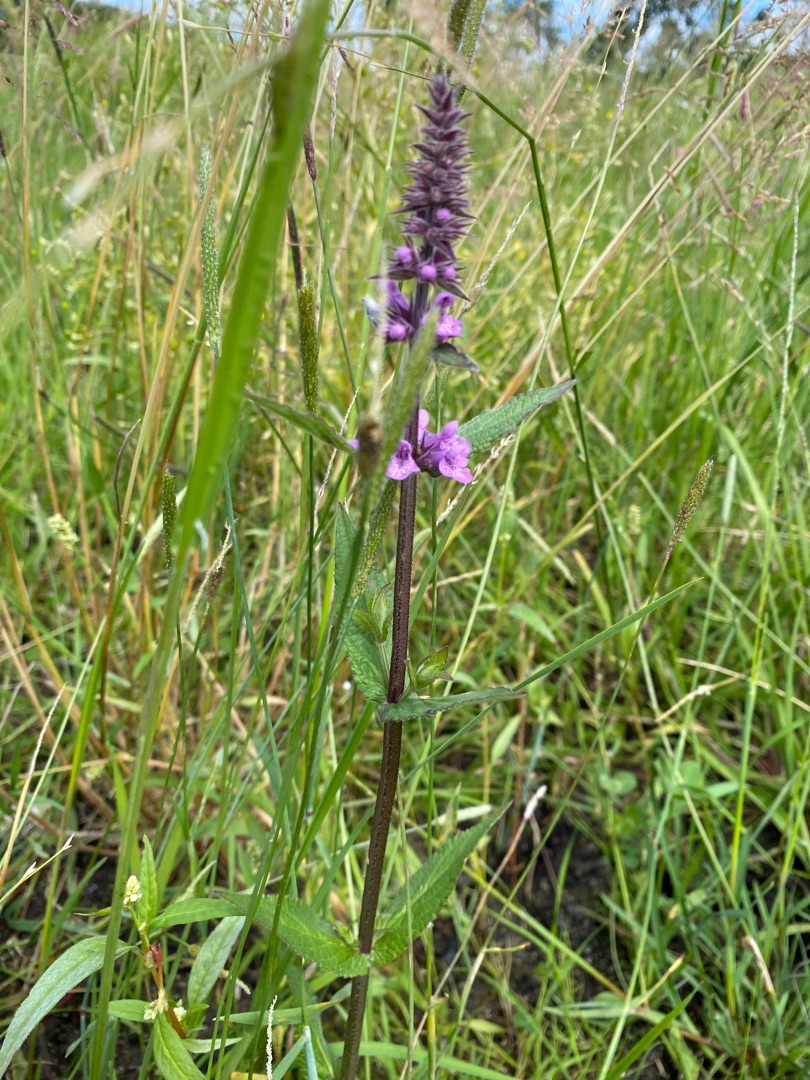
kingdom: Plantae
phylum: Tracheophyta
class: Magnoliopsida
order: Lamiales
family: Lamiaceae
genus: Stachys
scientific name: Stachys palustris
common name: Kær-galtetand
